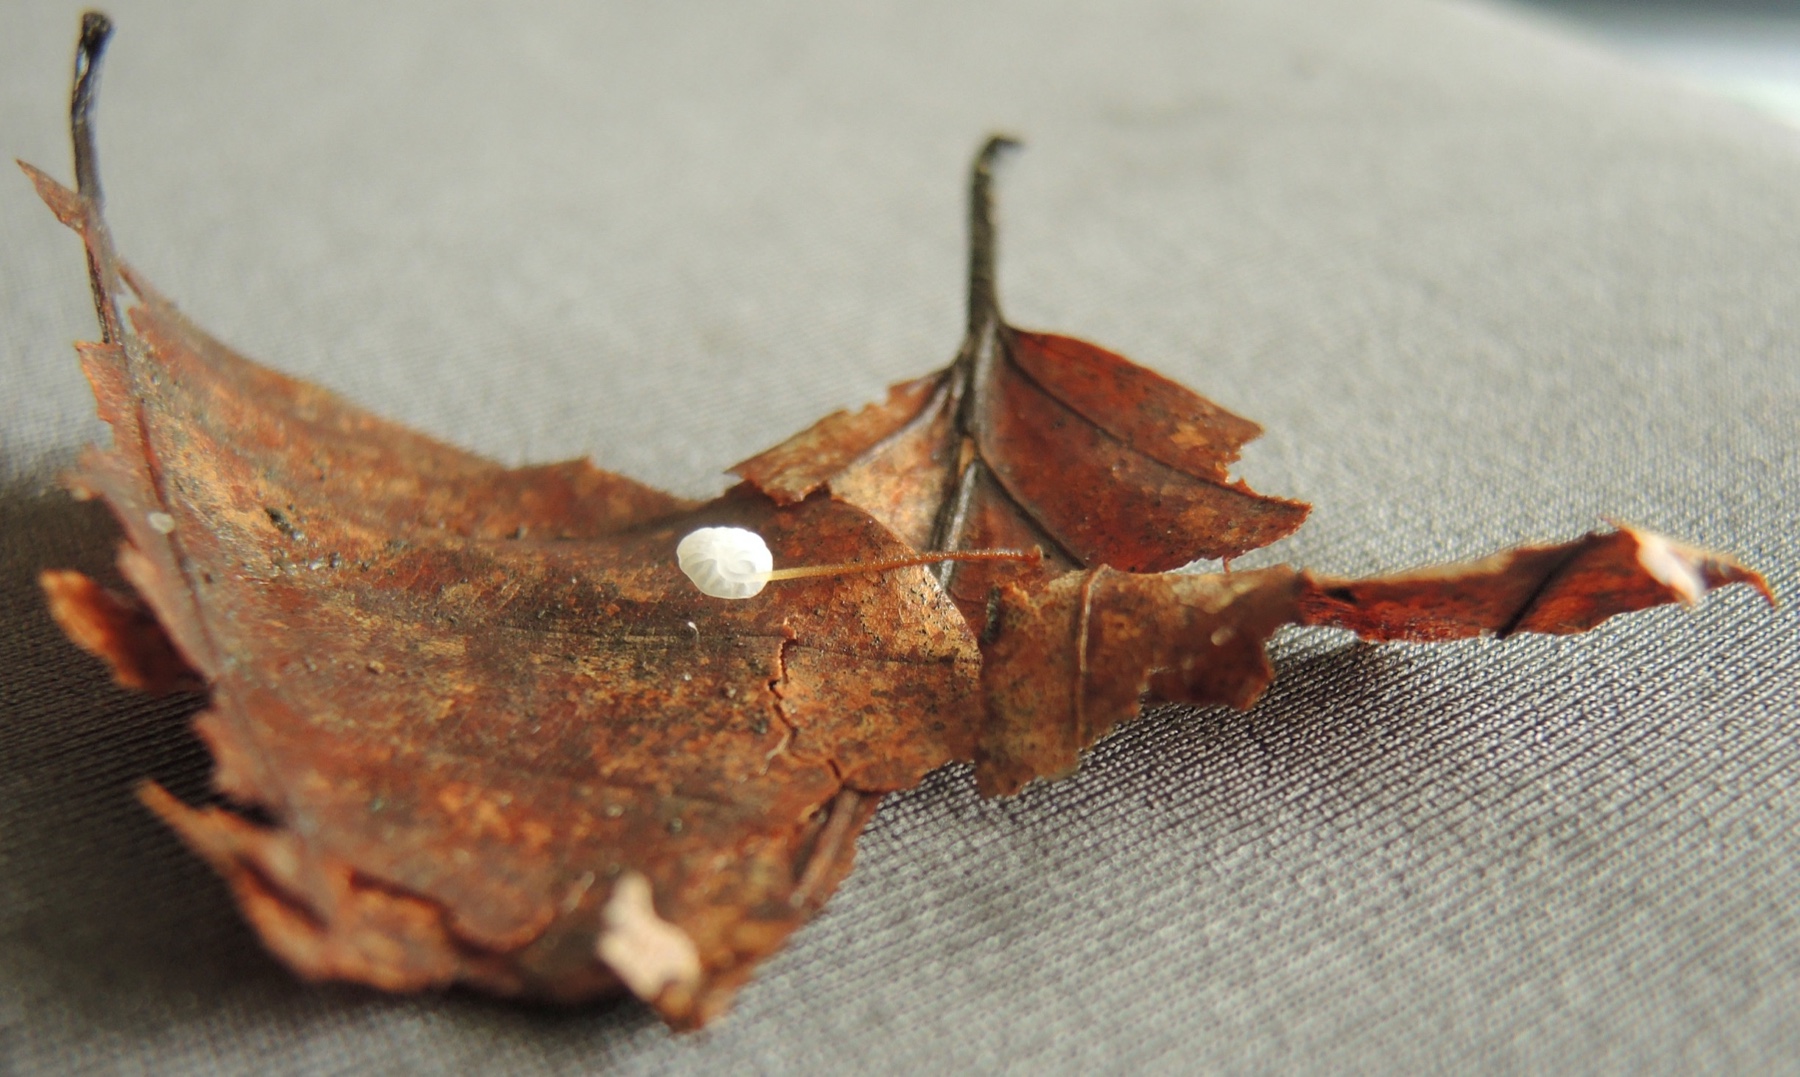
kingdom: Fungi
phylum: Basidiomycota
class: Agaricomycetes
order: Agaricales
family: Physalacriaceae
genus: Rhizomarasmius
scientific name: Rhizomarasmius setosus
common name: bøgeblads-bruskhat
